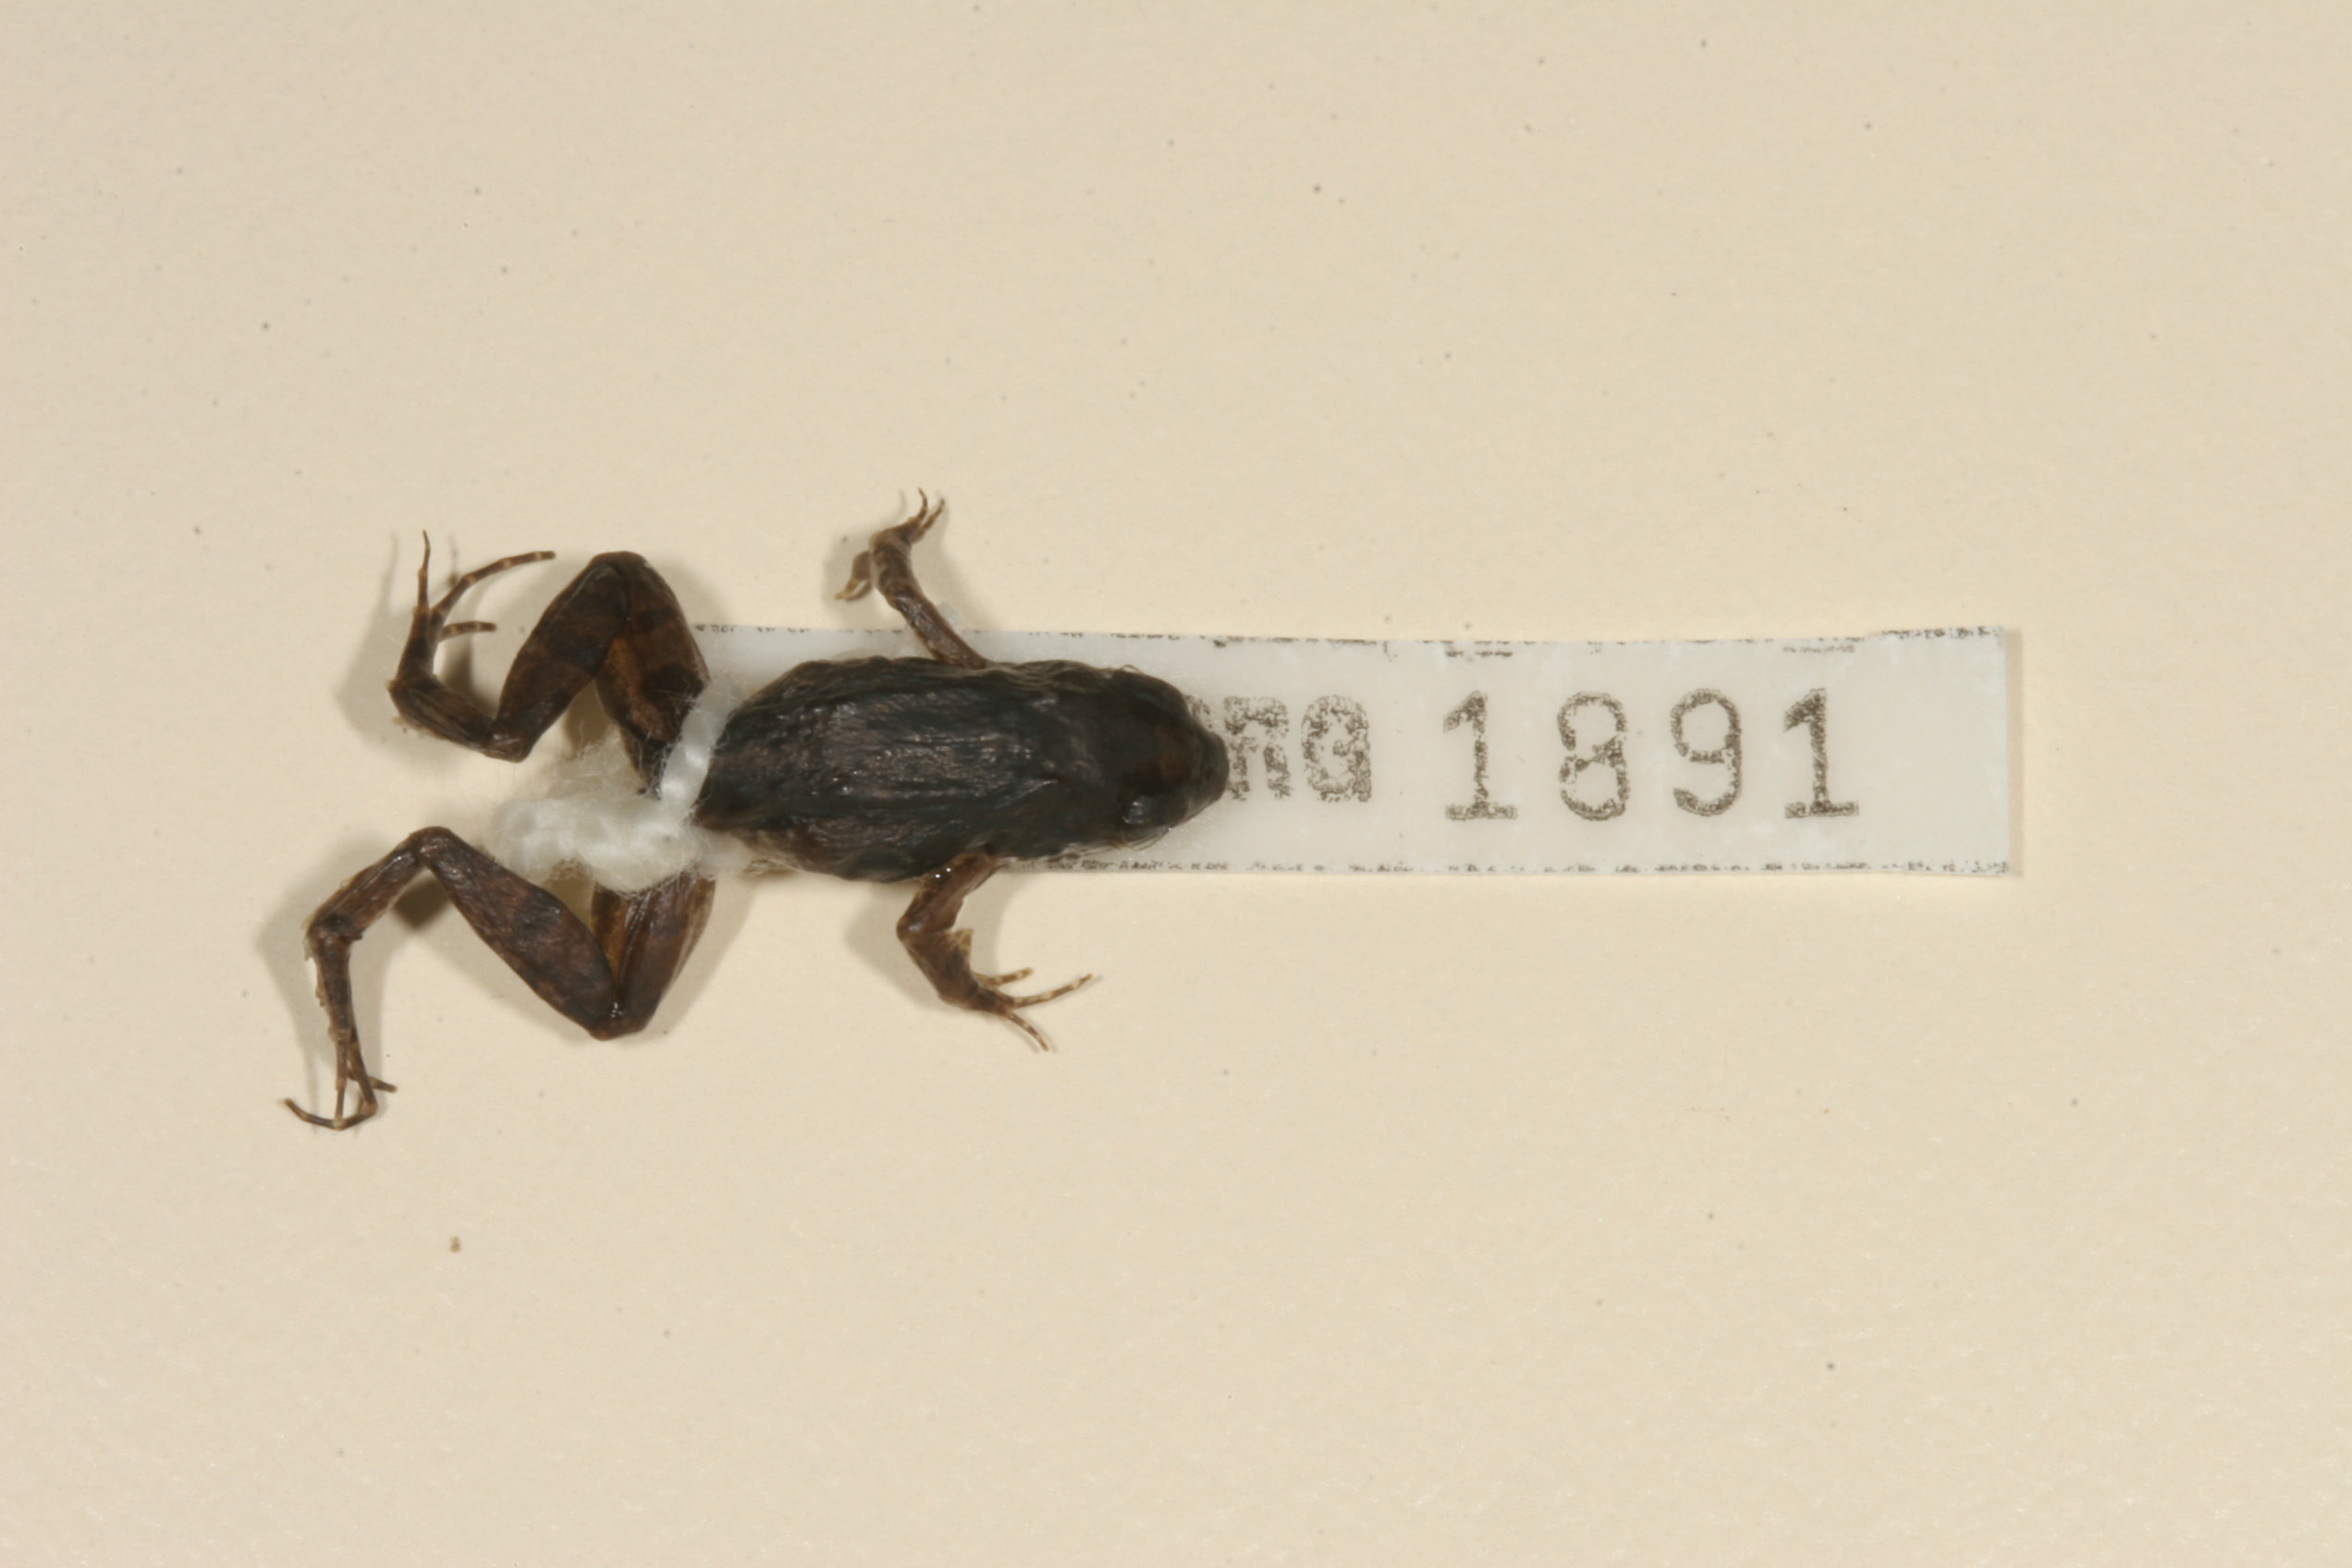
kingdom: Animalia
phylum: Chordata
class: Amphibia
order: Anura
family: Phrynobatrachidae
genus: Phrynobatrachus
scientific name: Phrynobatrachus mababiensis
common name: Dwarf puddle frog
